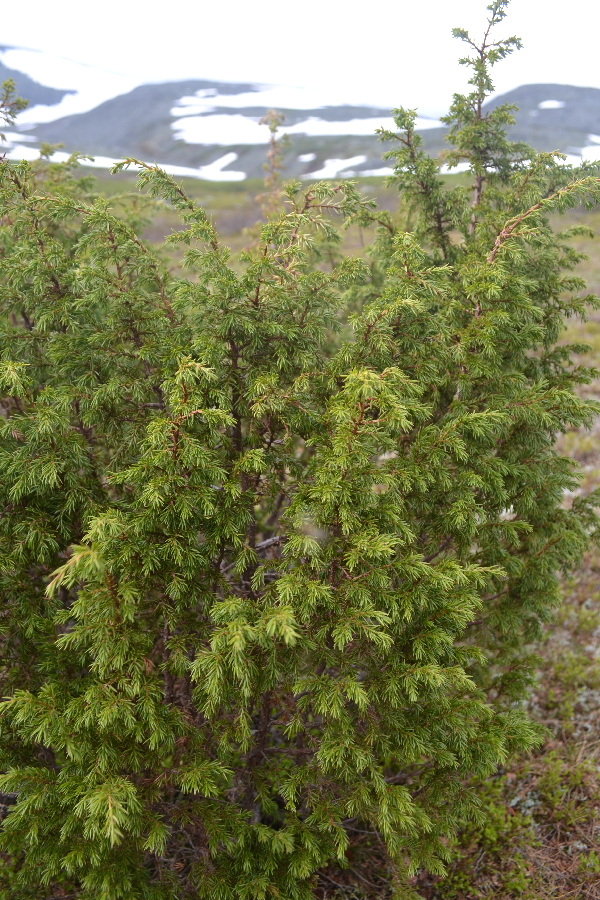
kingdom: Plantae
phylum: Tracheophyta
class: Pinopsida
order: Pinales
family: Cupressaceae
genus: Juniperus
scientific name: Juniperus communis
